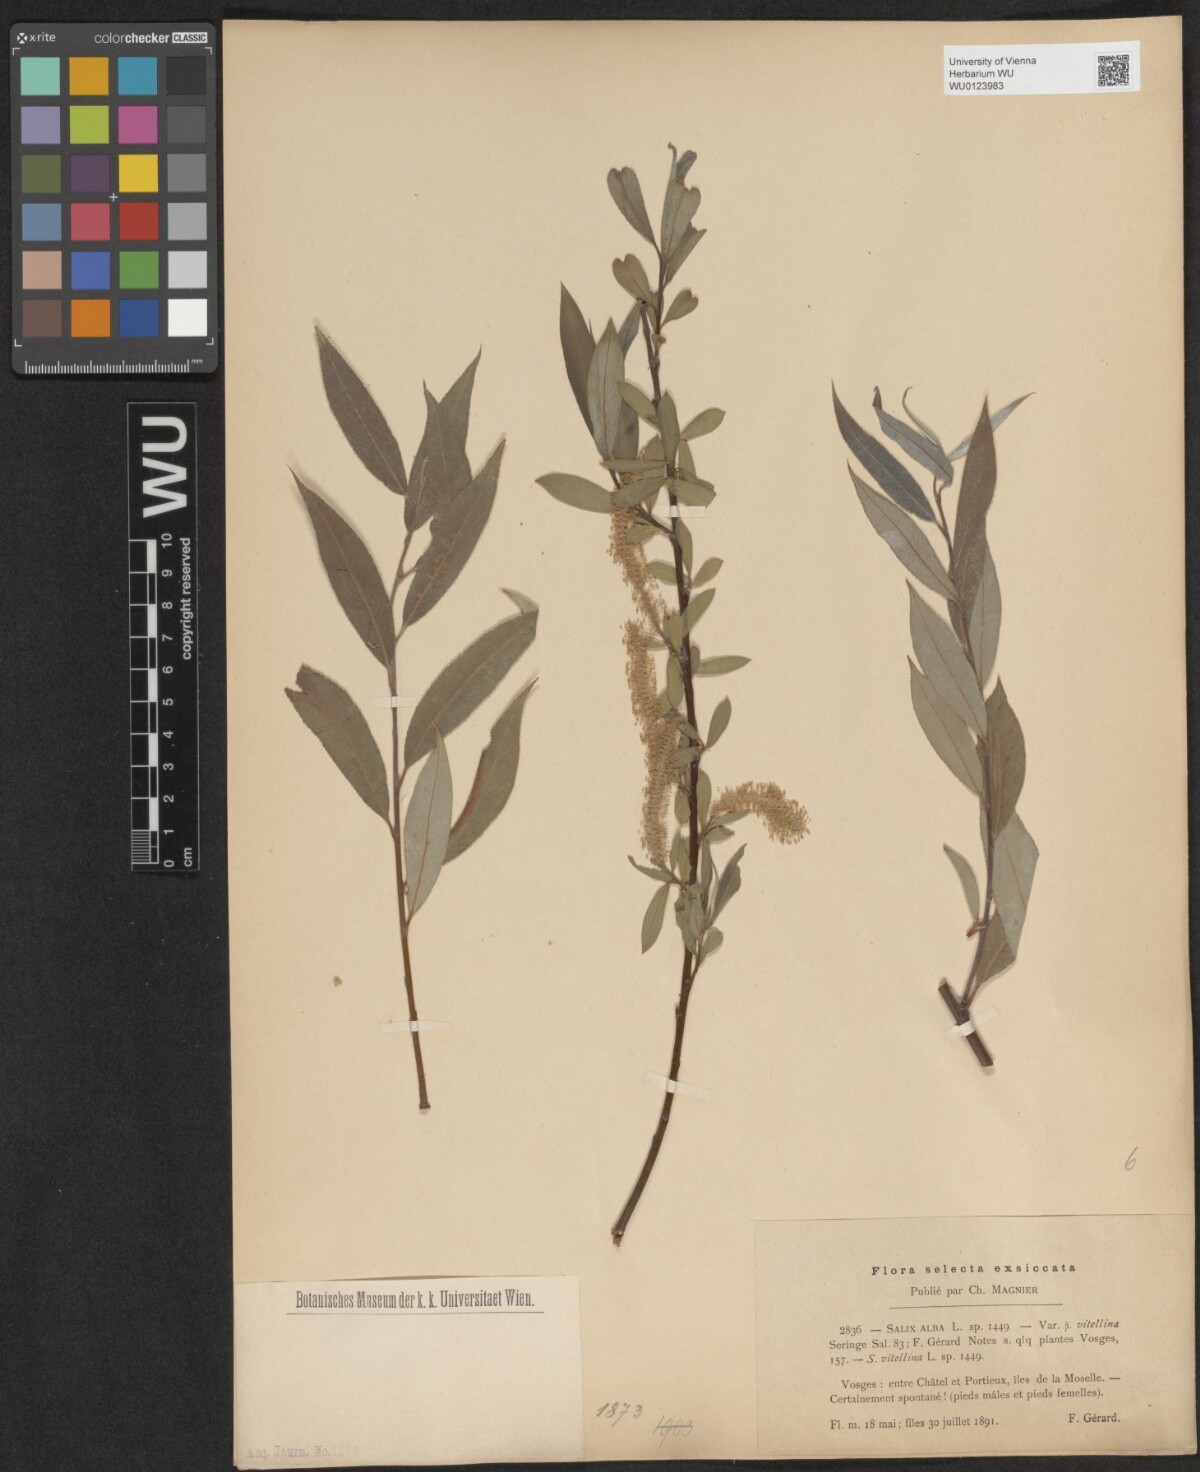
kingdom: Plantae
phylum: Tracheophyta
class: Magnoliopsida
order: Malpighiales
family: Salicaceae
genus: Salix
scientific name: Salix alba
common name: White willow
